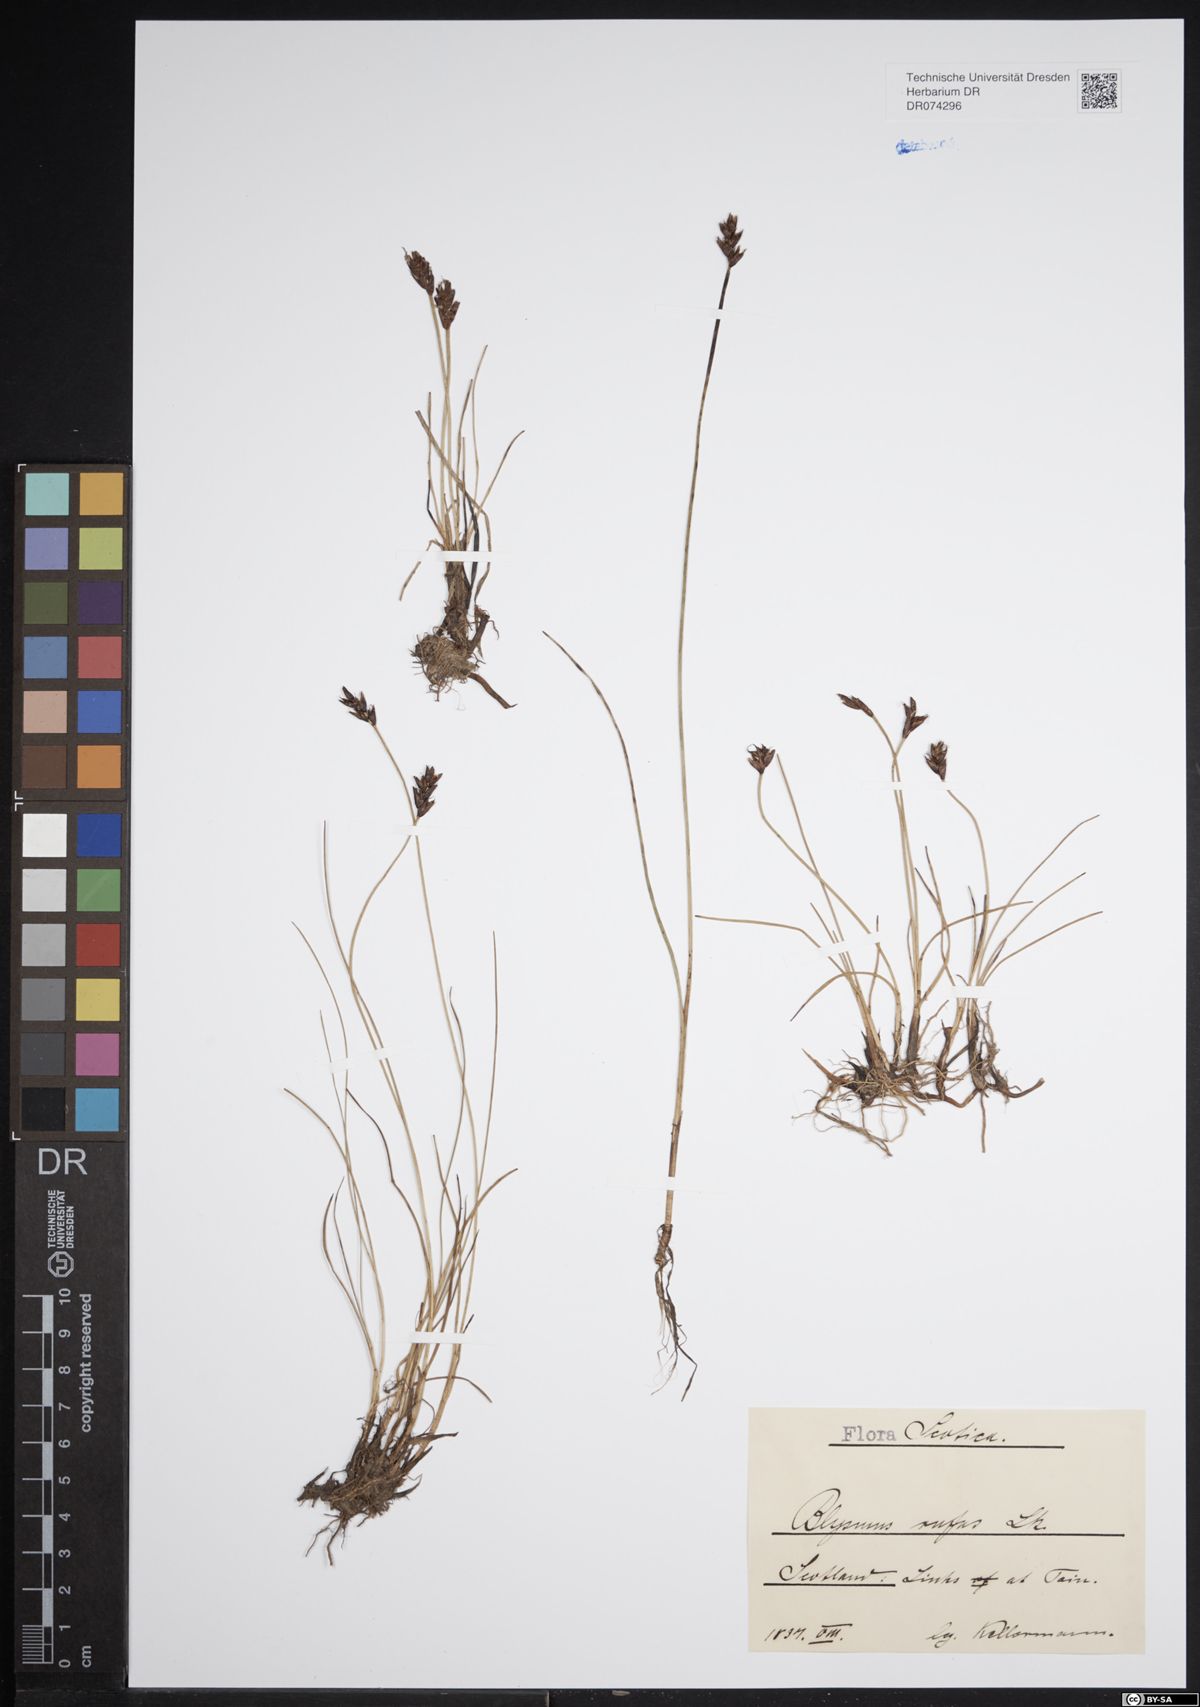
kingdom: Plantae
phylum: Tracheophyta
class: Liliopsida
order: Poales
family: Cyperaceae
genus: Blysmus
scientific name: Blysmus rufus
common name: Saltmarsh flat-sedge
